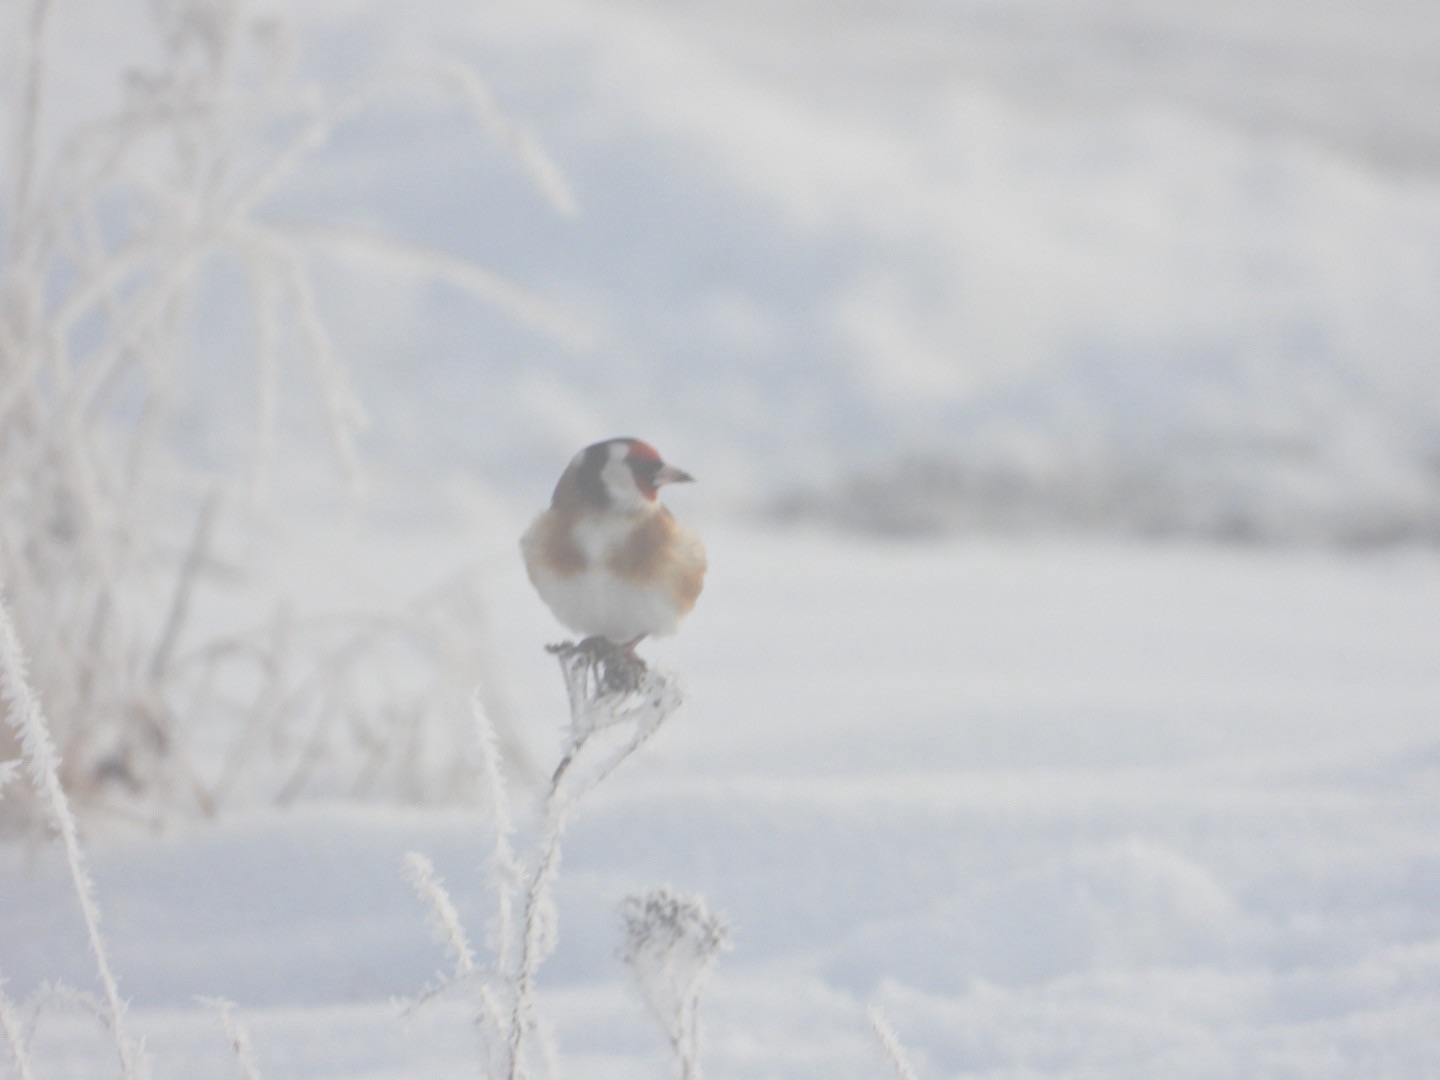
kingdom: Animalia
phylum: Chordata
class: Aves
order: Passeriformes
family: Fringillidae
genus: Carduelis
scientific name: Carduelis carduelis
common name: Stillits
